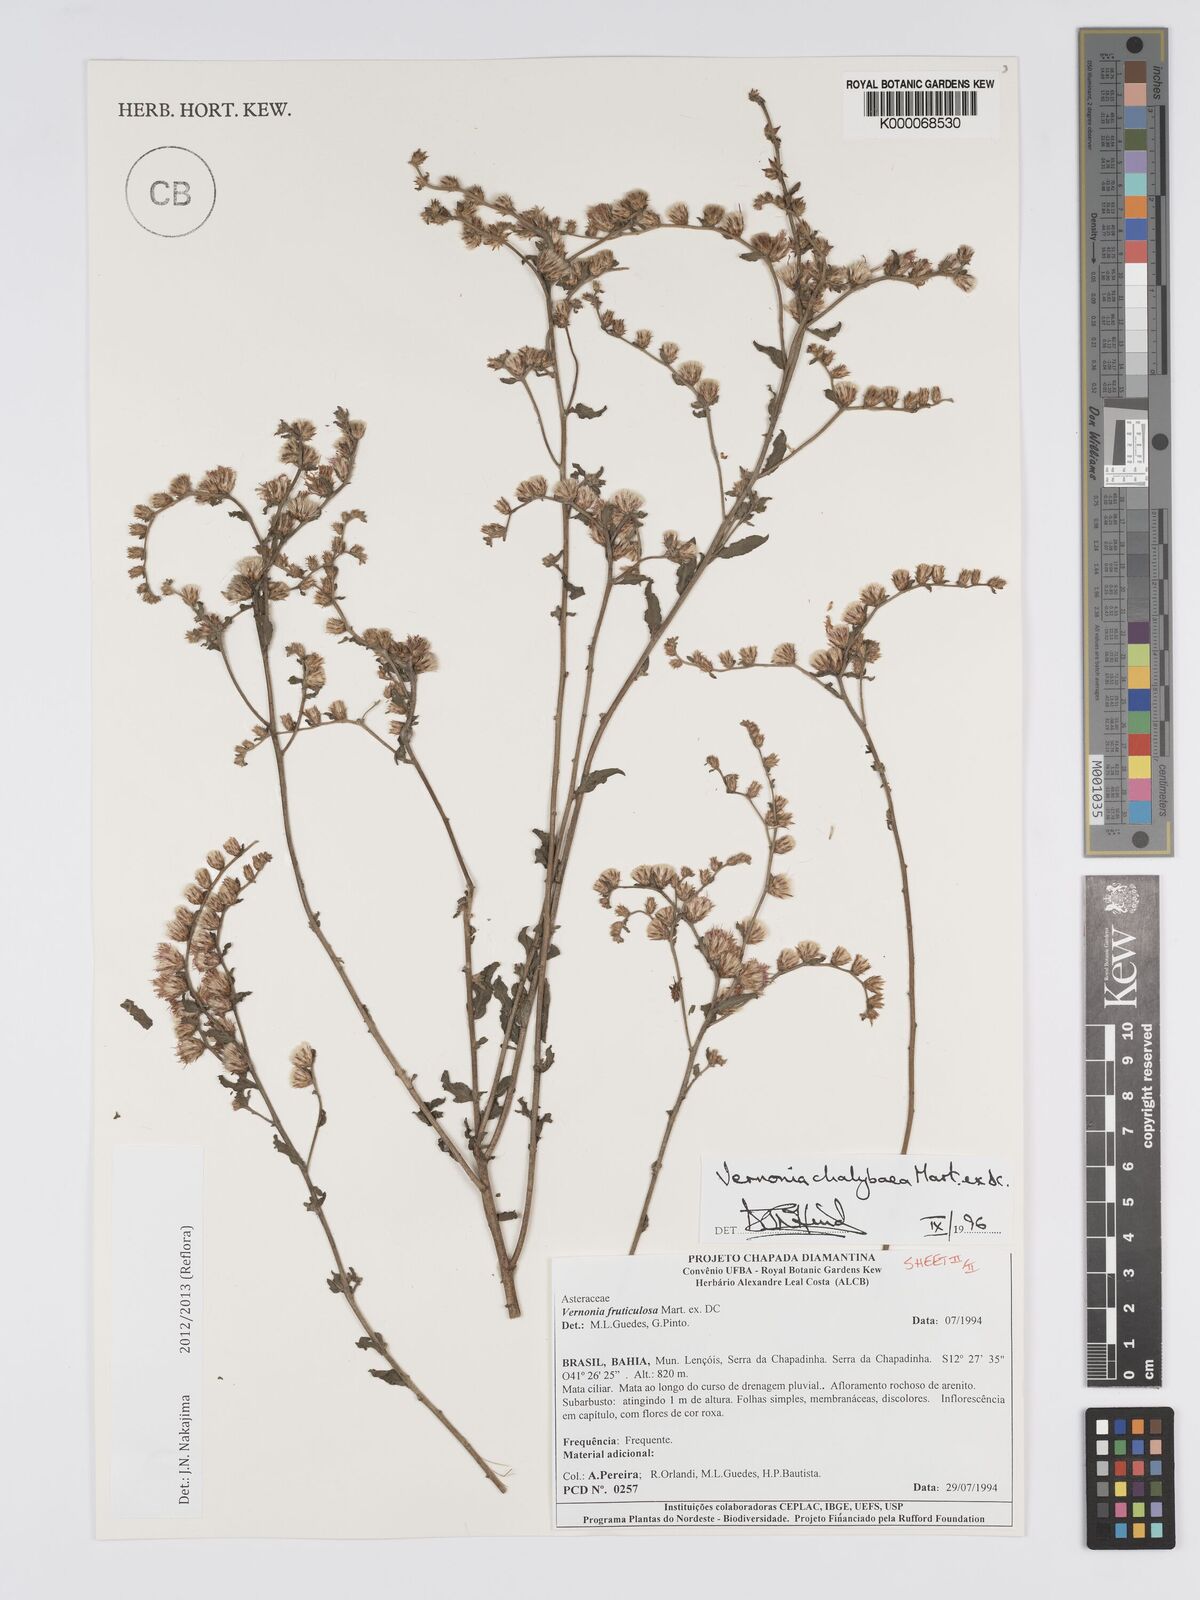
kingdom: Plantae
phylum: Tracheophyta
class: Magnoliopsida
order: Asterales
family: Asteraceae
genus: Lepidaploa
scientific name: Lepidaploa chalybaea
